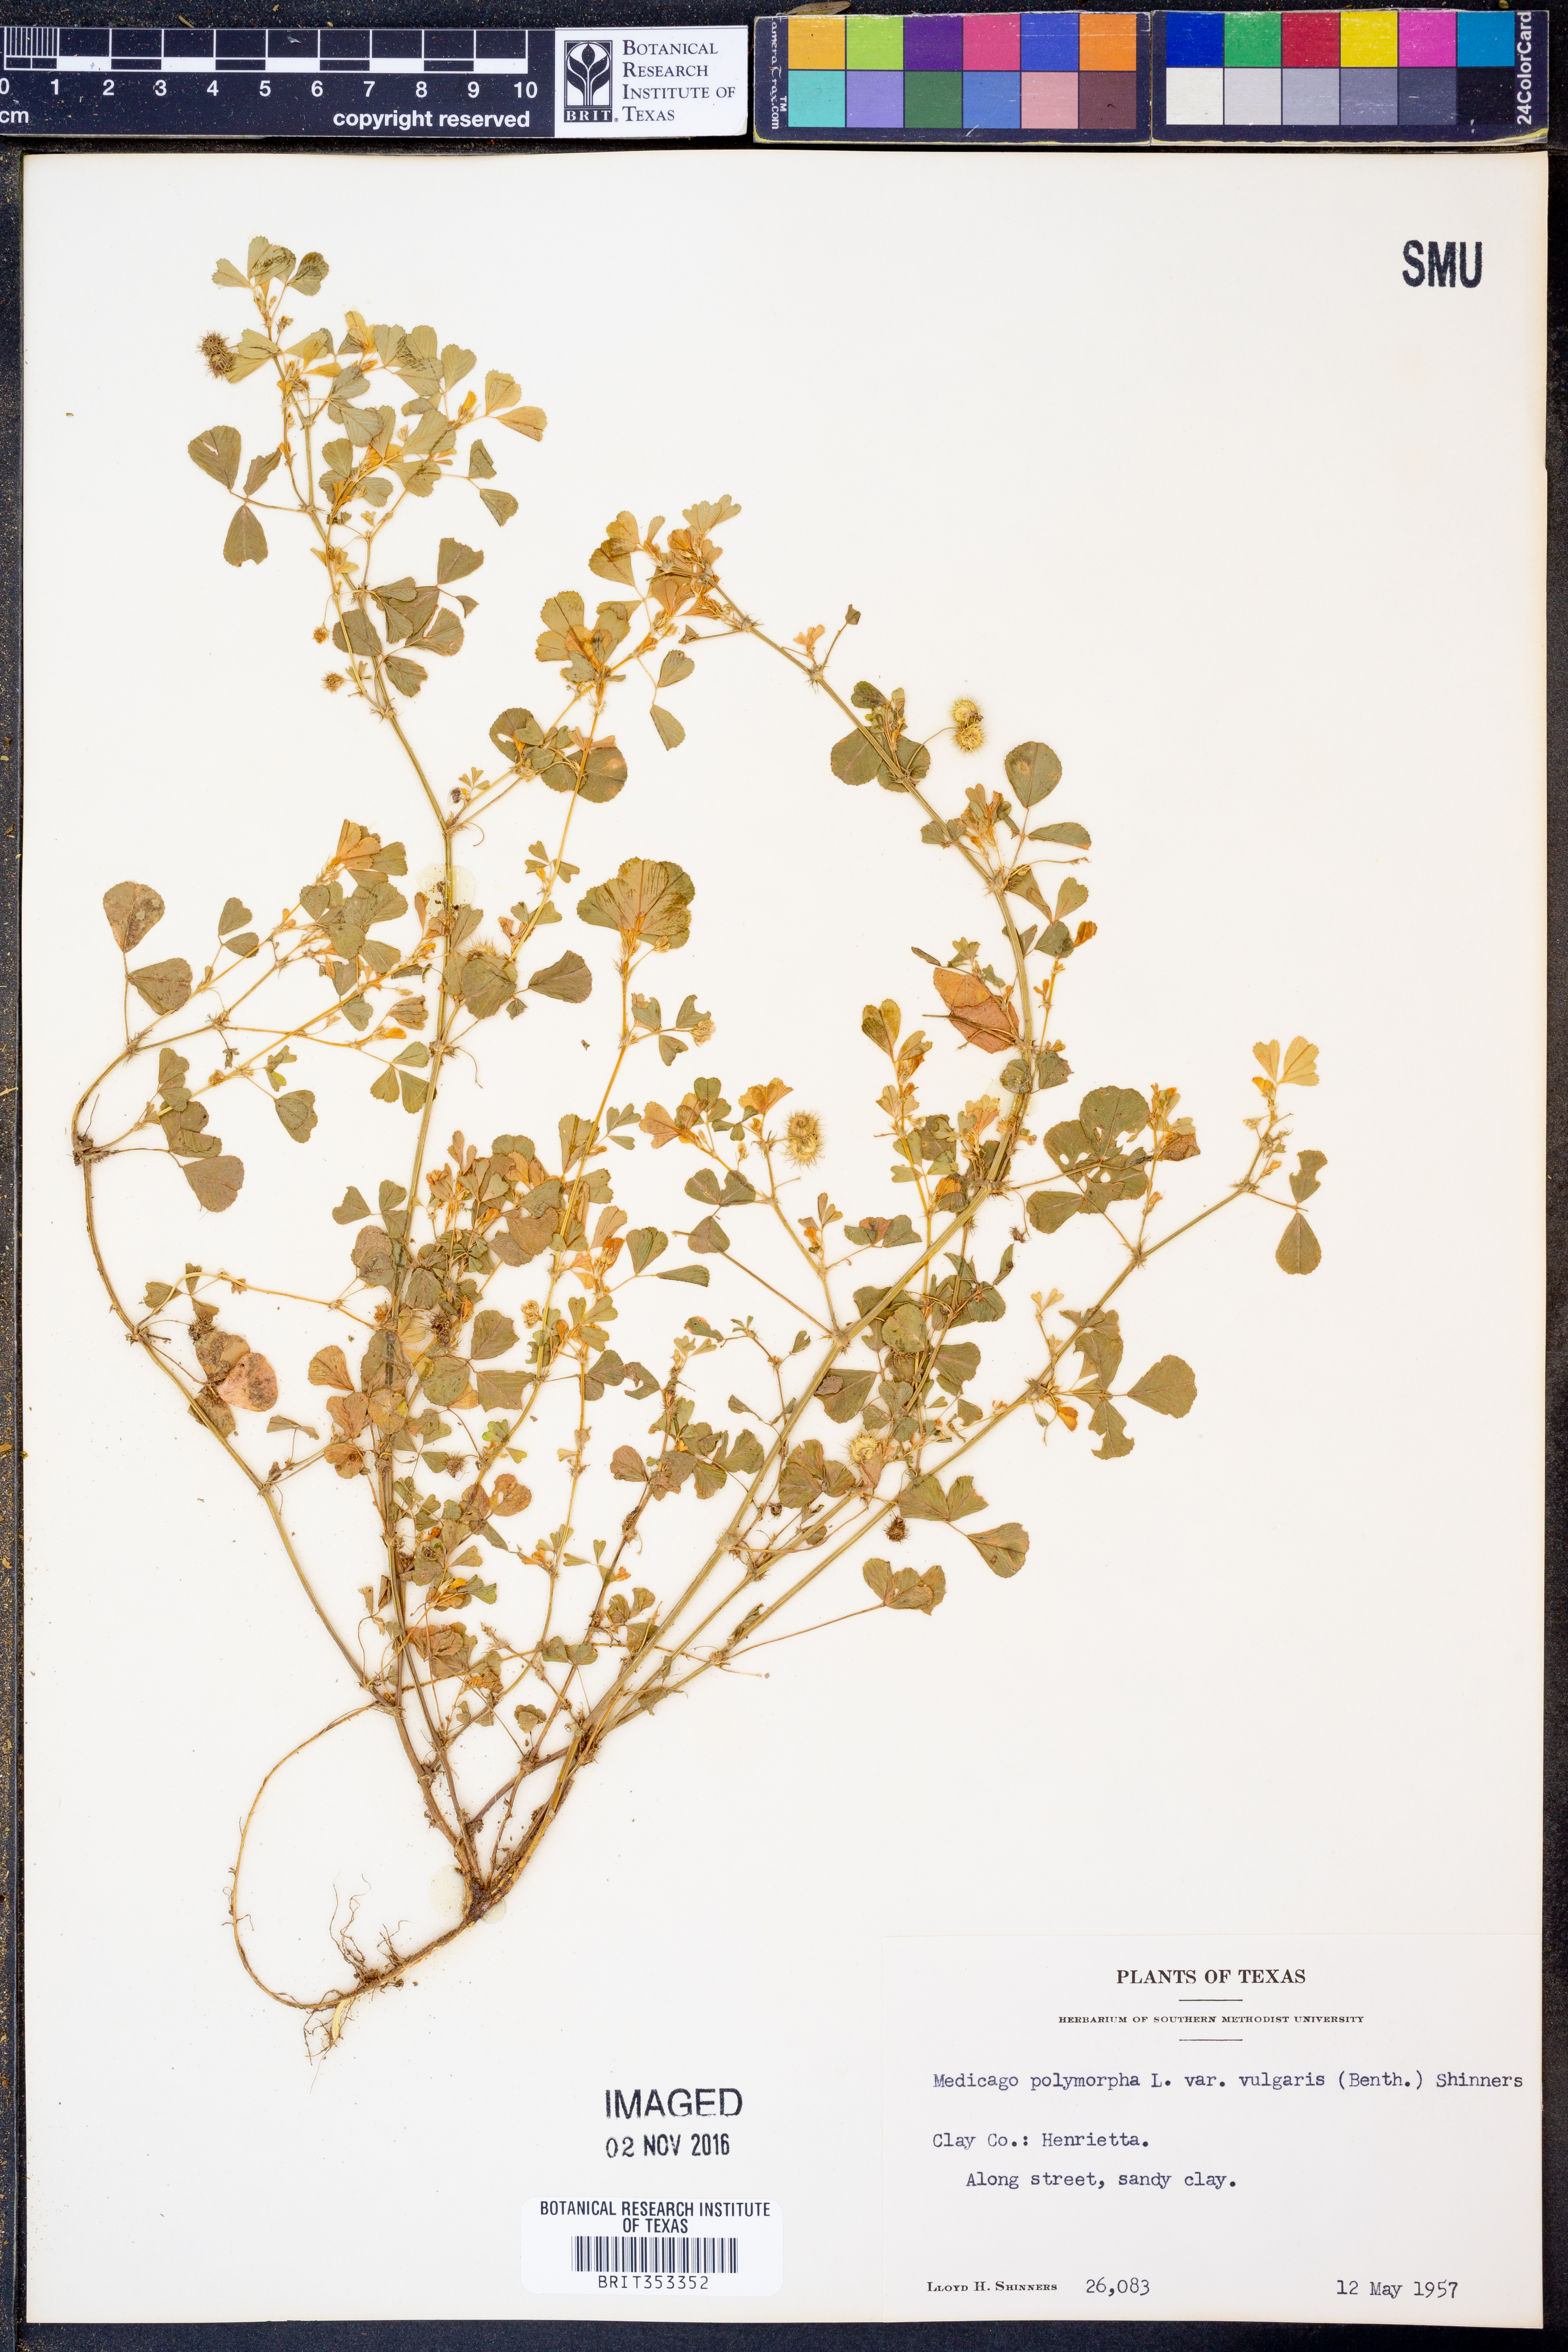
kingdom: Plantae
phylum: Tracheophyta
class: Magnoliopsida
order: Fabales
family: Fabaceae
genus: Medicago
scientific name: Medicago polymorpha
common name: Burclover
